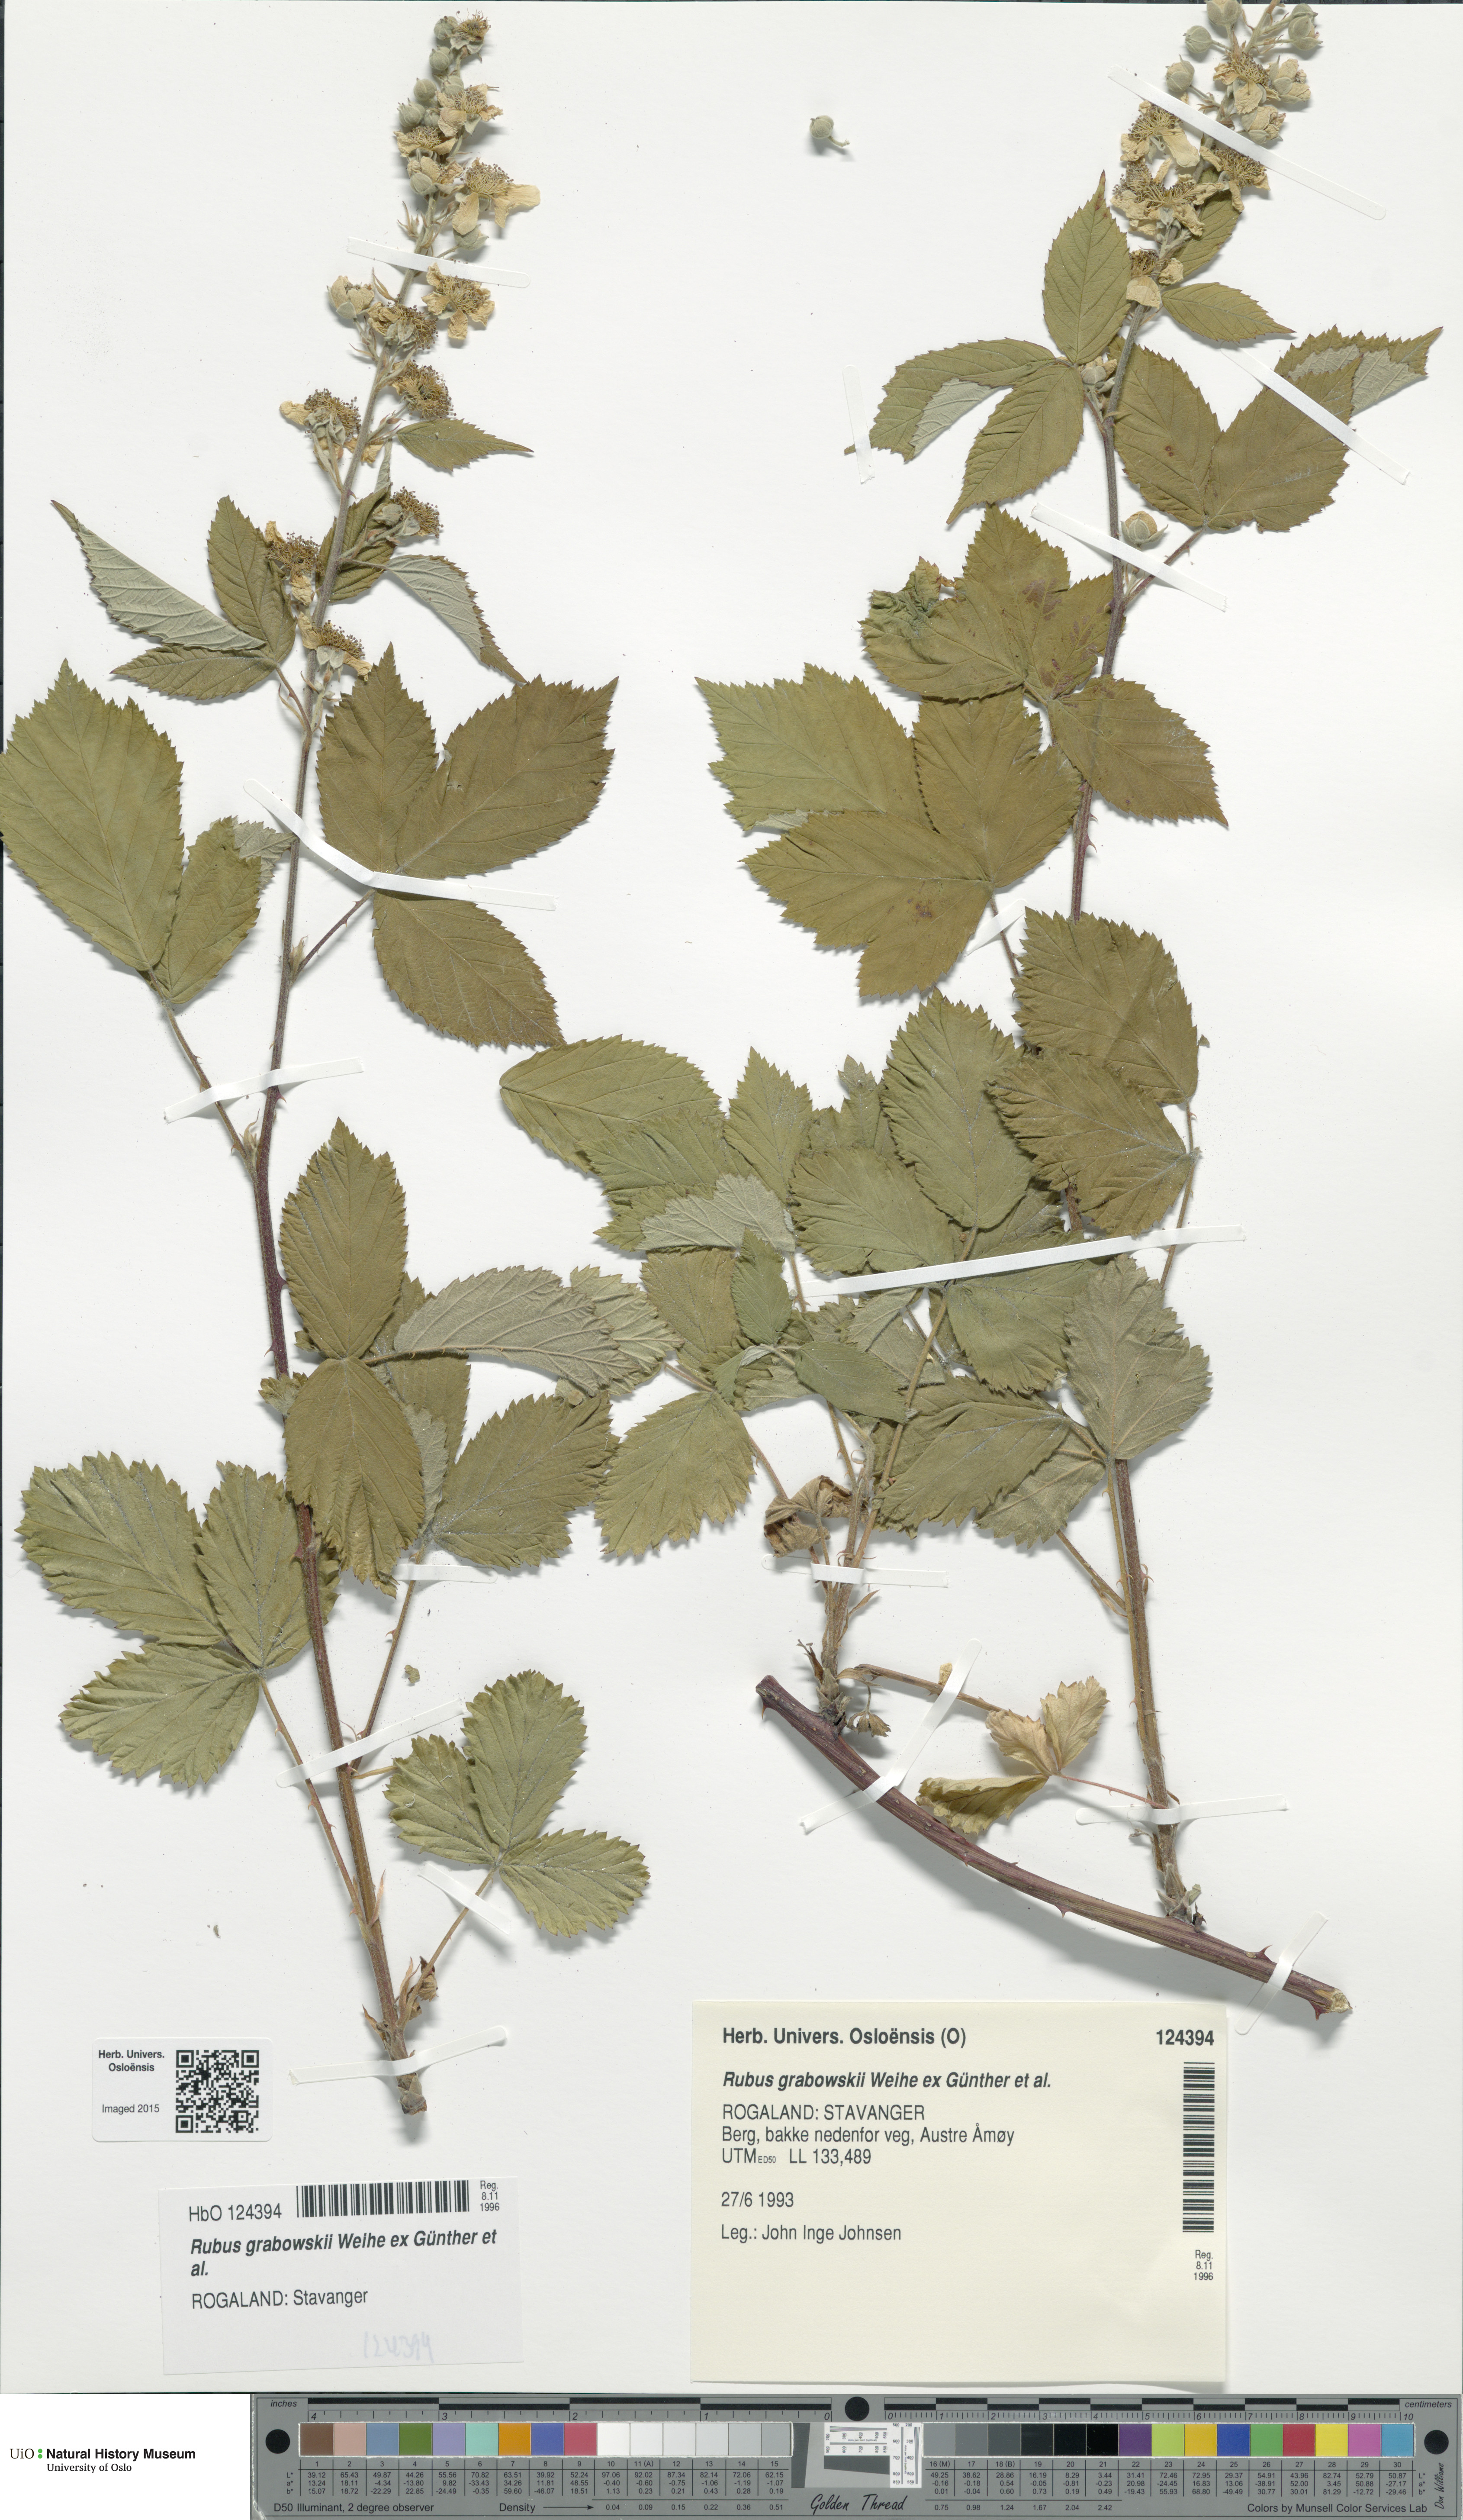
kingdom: Plantae
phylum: Tracheophyta
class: Magnoliopsida
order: Rosales
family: Rosaceae
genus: Rubus
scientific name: Rubus grabowskii
